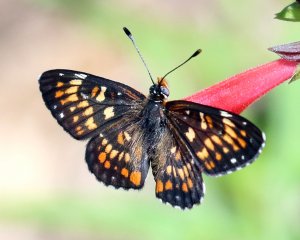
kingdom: Animalia
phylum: Arthropoda
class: Insecta
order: Lepidoptera
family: Nymphalidae
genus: Chlosyne
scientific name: Chlosyne definita
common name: Definite Patch
